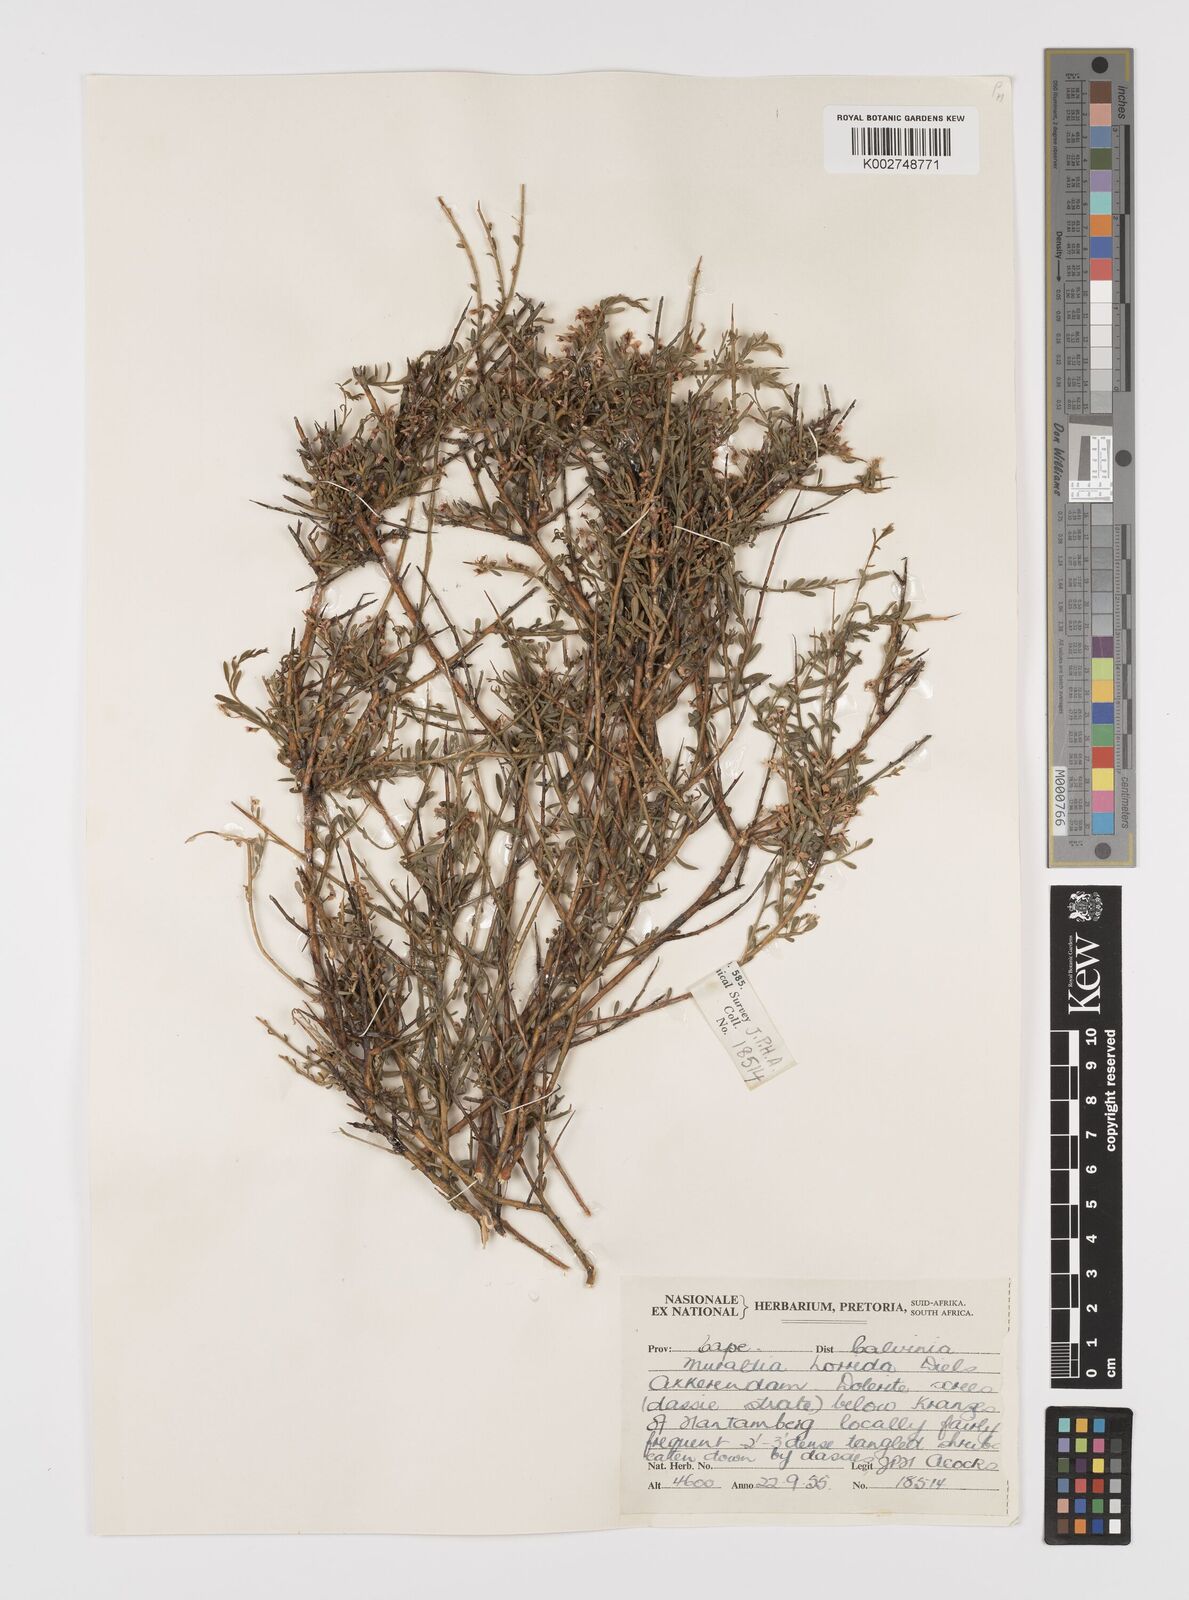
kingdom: Plantae
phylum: Tracheophyta
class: Magnoliopsida
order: Fabales
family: Polygalaceae
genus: Muraltia
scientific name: Muraltia horrida
